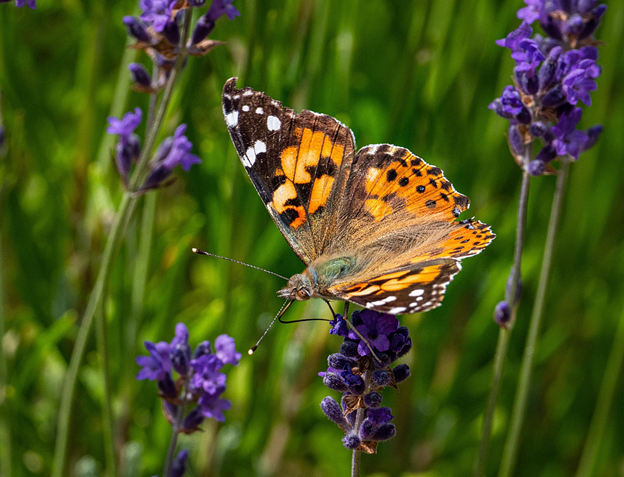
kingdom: Animalia
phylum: Arthropoda
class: Insecta
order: Lepidoptera
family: Nymphalidae
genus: Vanessa
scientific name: Vanessa cardui
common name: Painted Lady
